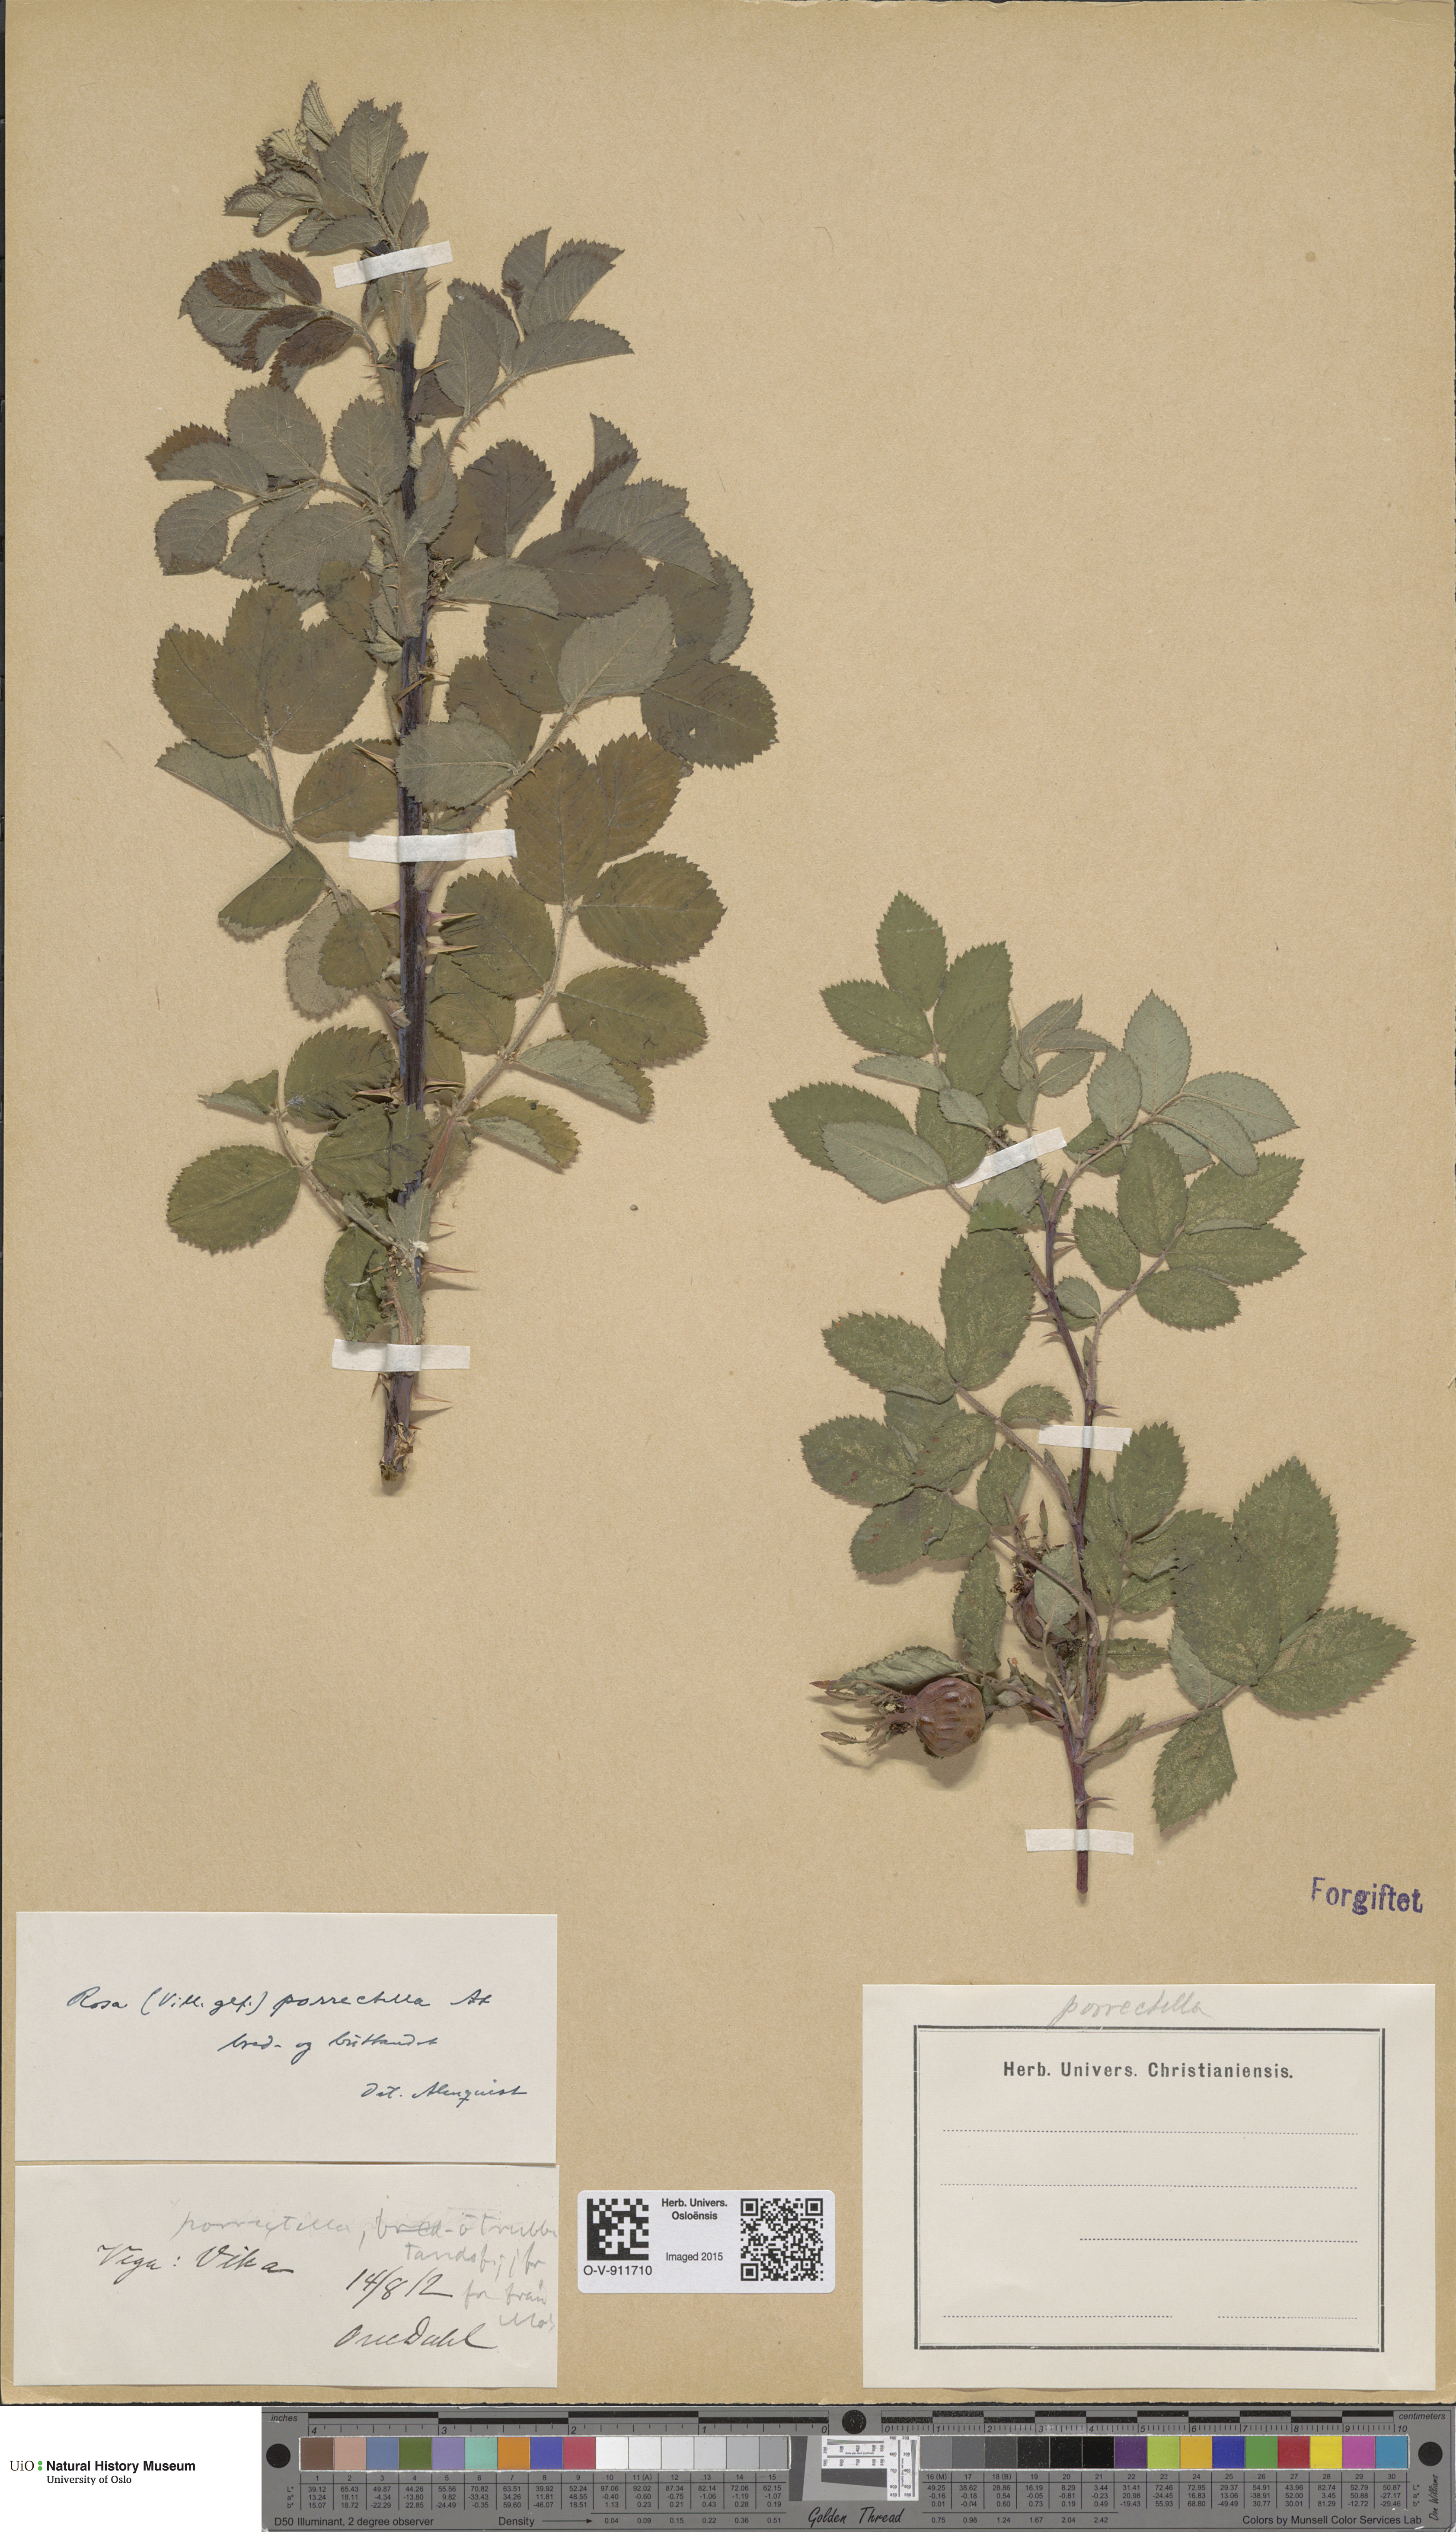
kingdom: Plantae
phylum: Tracheophyta
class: Magnoliopsida
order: Rosales
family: Rosaceae
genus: Rosa
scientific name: Rosa mollis
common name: Rose
